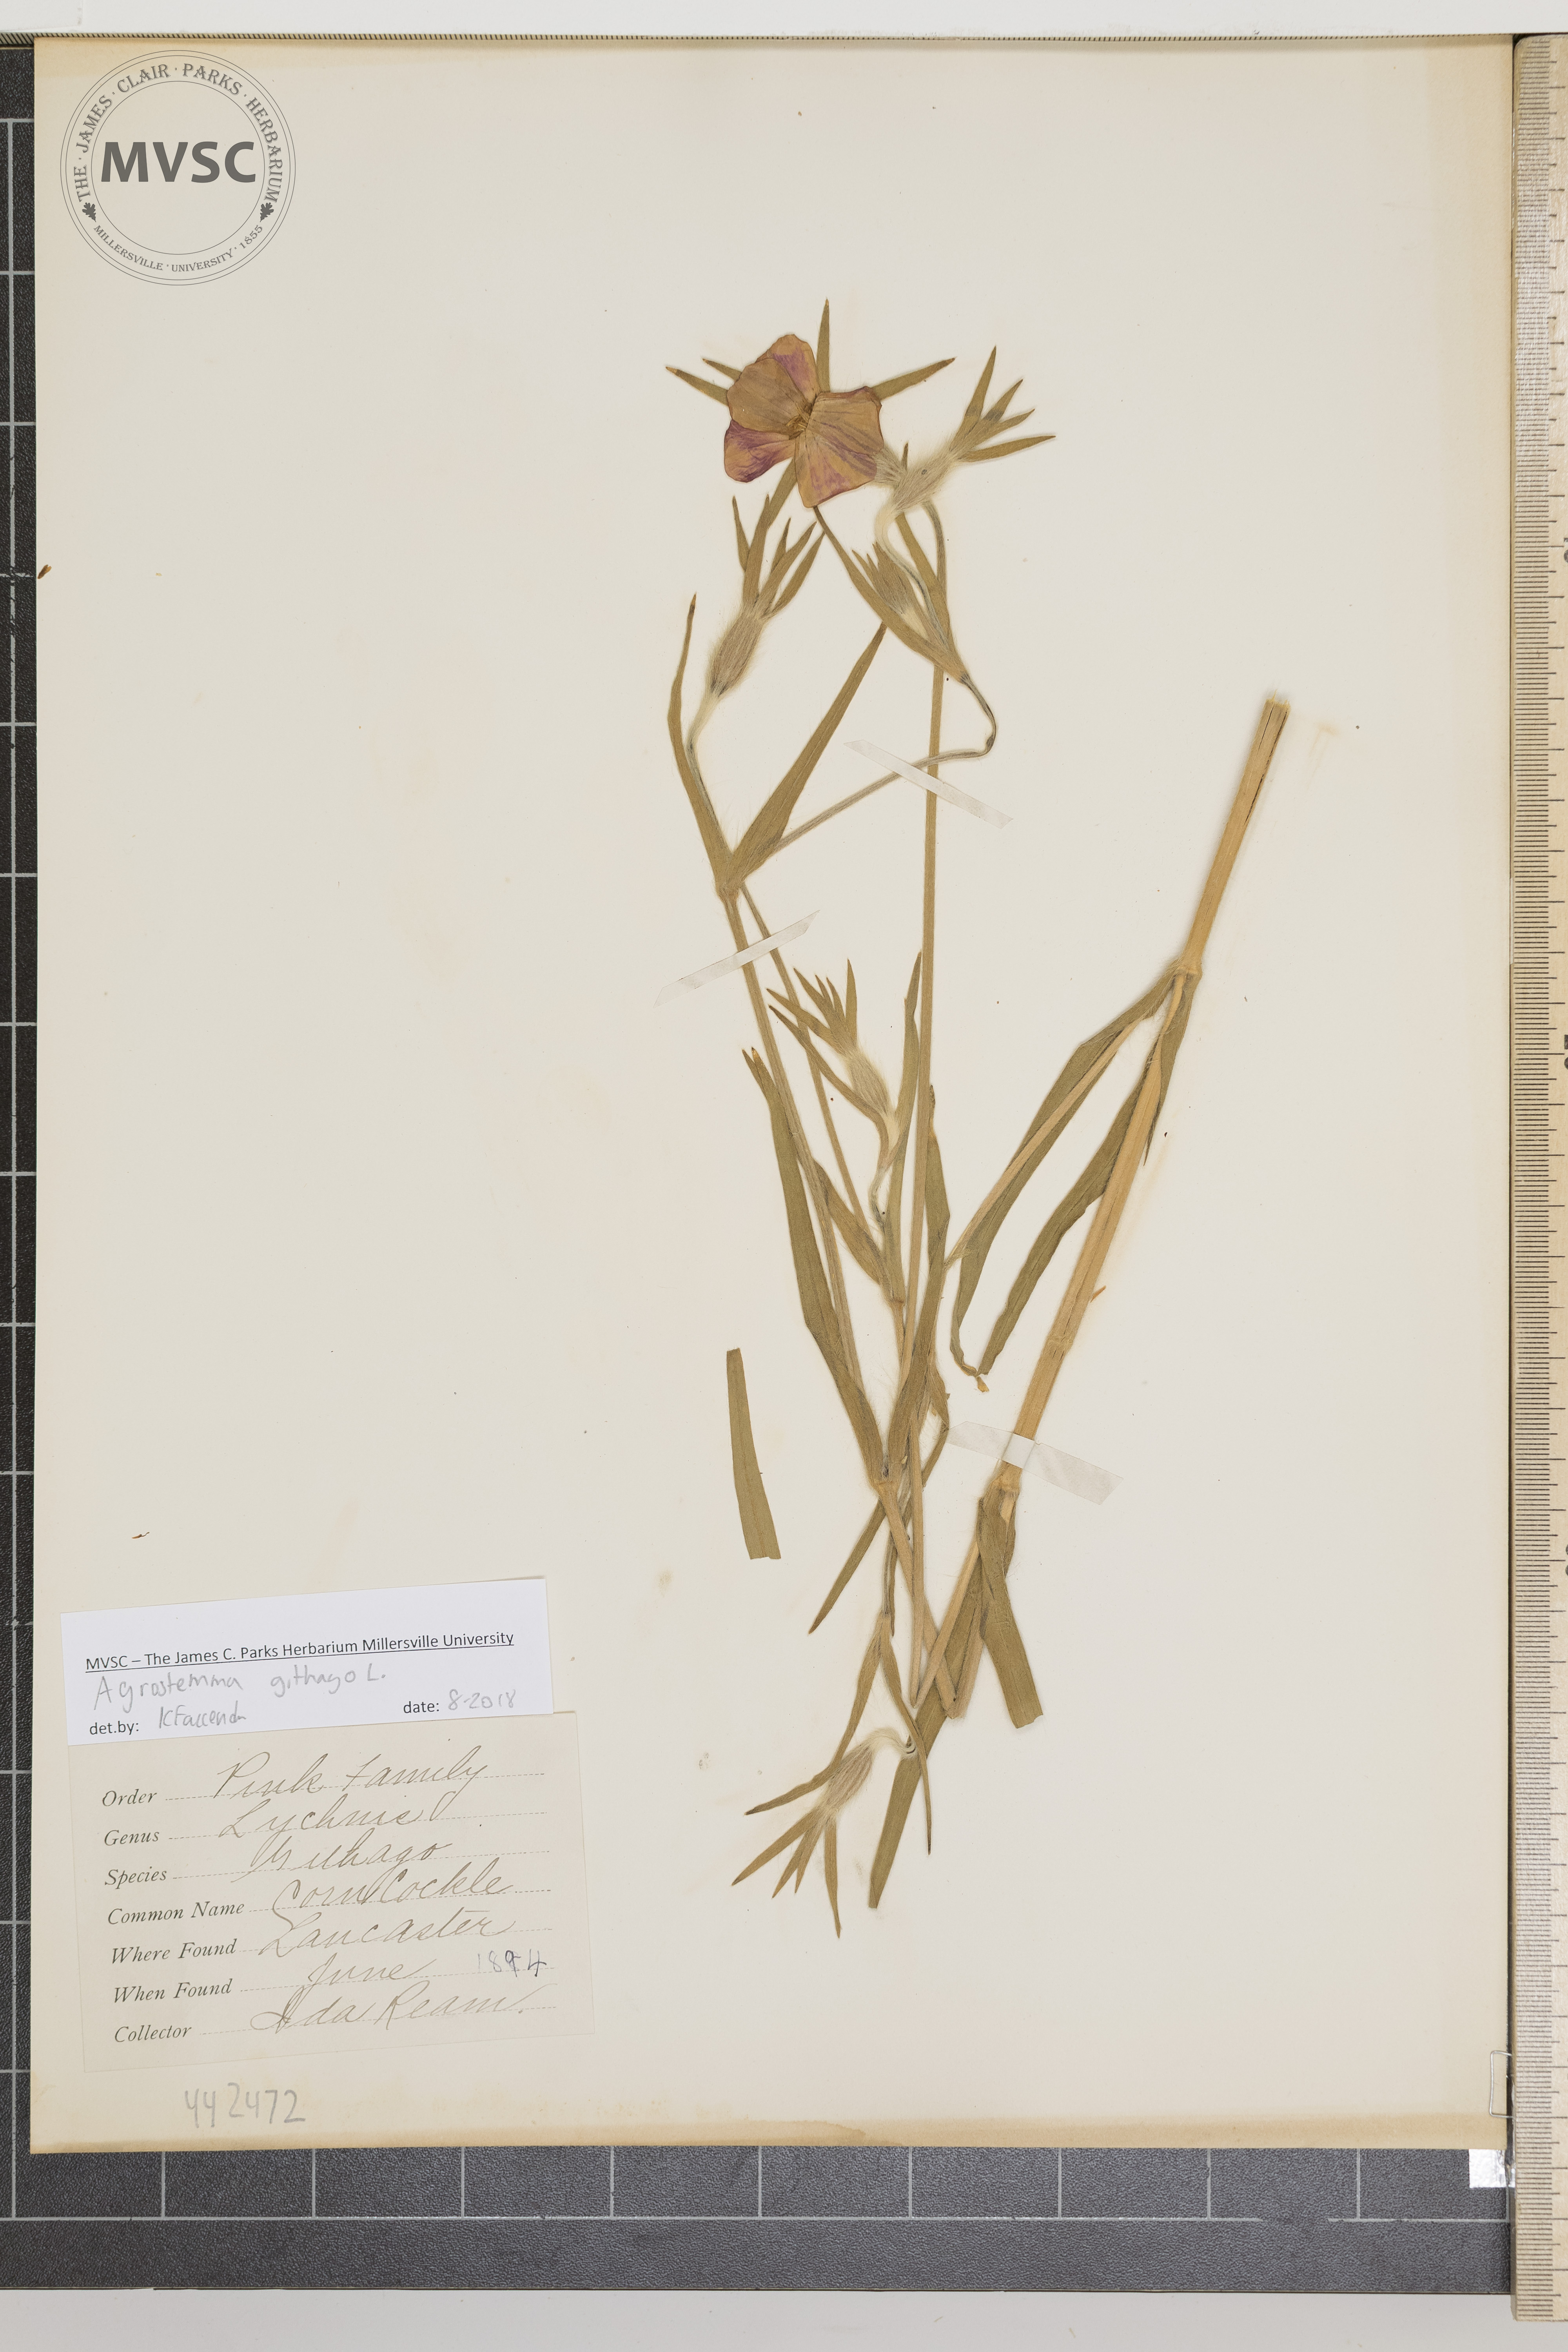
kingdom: Plantae
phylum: Tracheophyta
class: Magnoliopsida
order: Caryophyllales
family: Caryophyllaceae
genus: Agrostemma
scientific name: Agrostemma githago
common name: Corn Cockle
